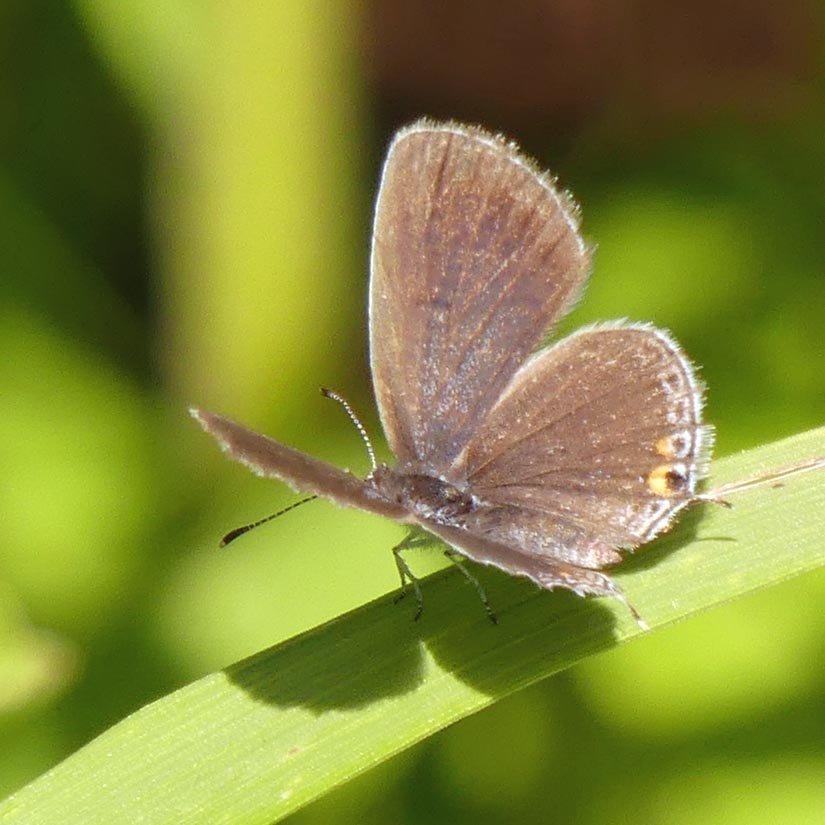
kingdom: Animalia
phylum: Arthropoda
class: Insecta
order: Lepidoptera
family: Lycaenidae
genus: Elkalyce
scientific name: Elkalyce comyntas
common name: Eastern Tailed-Blue
